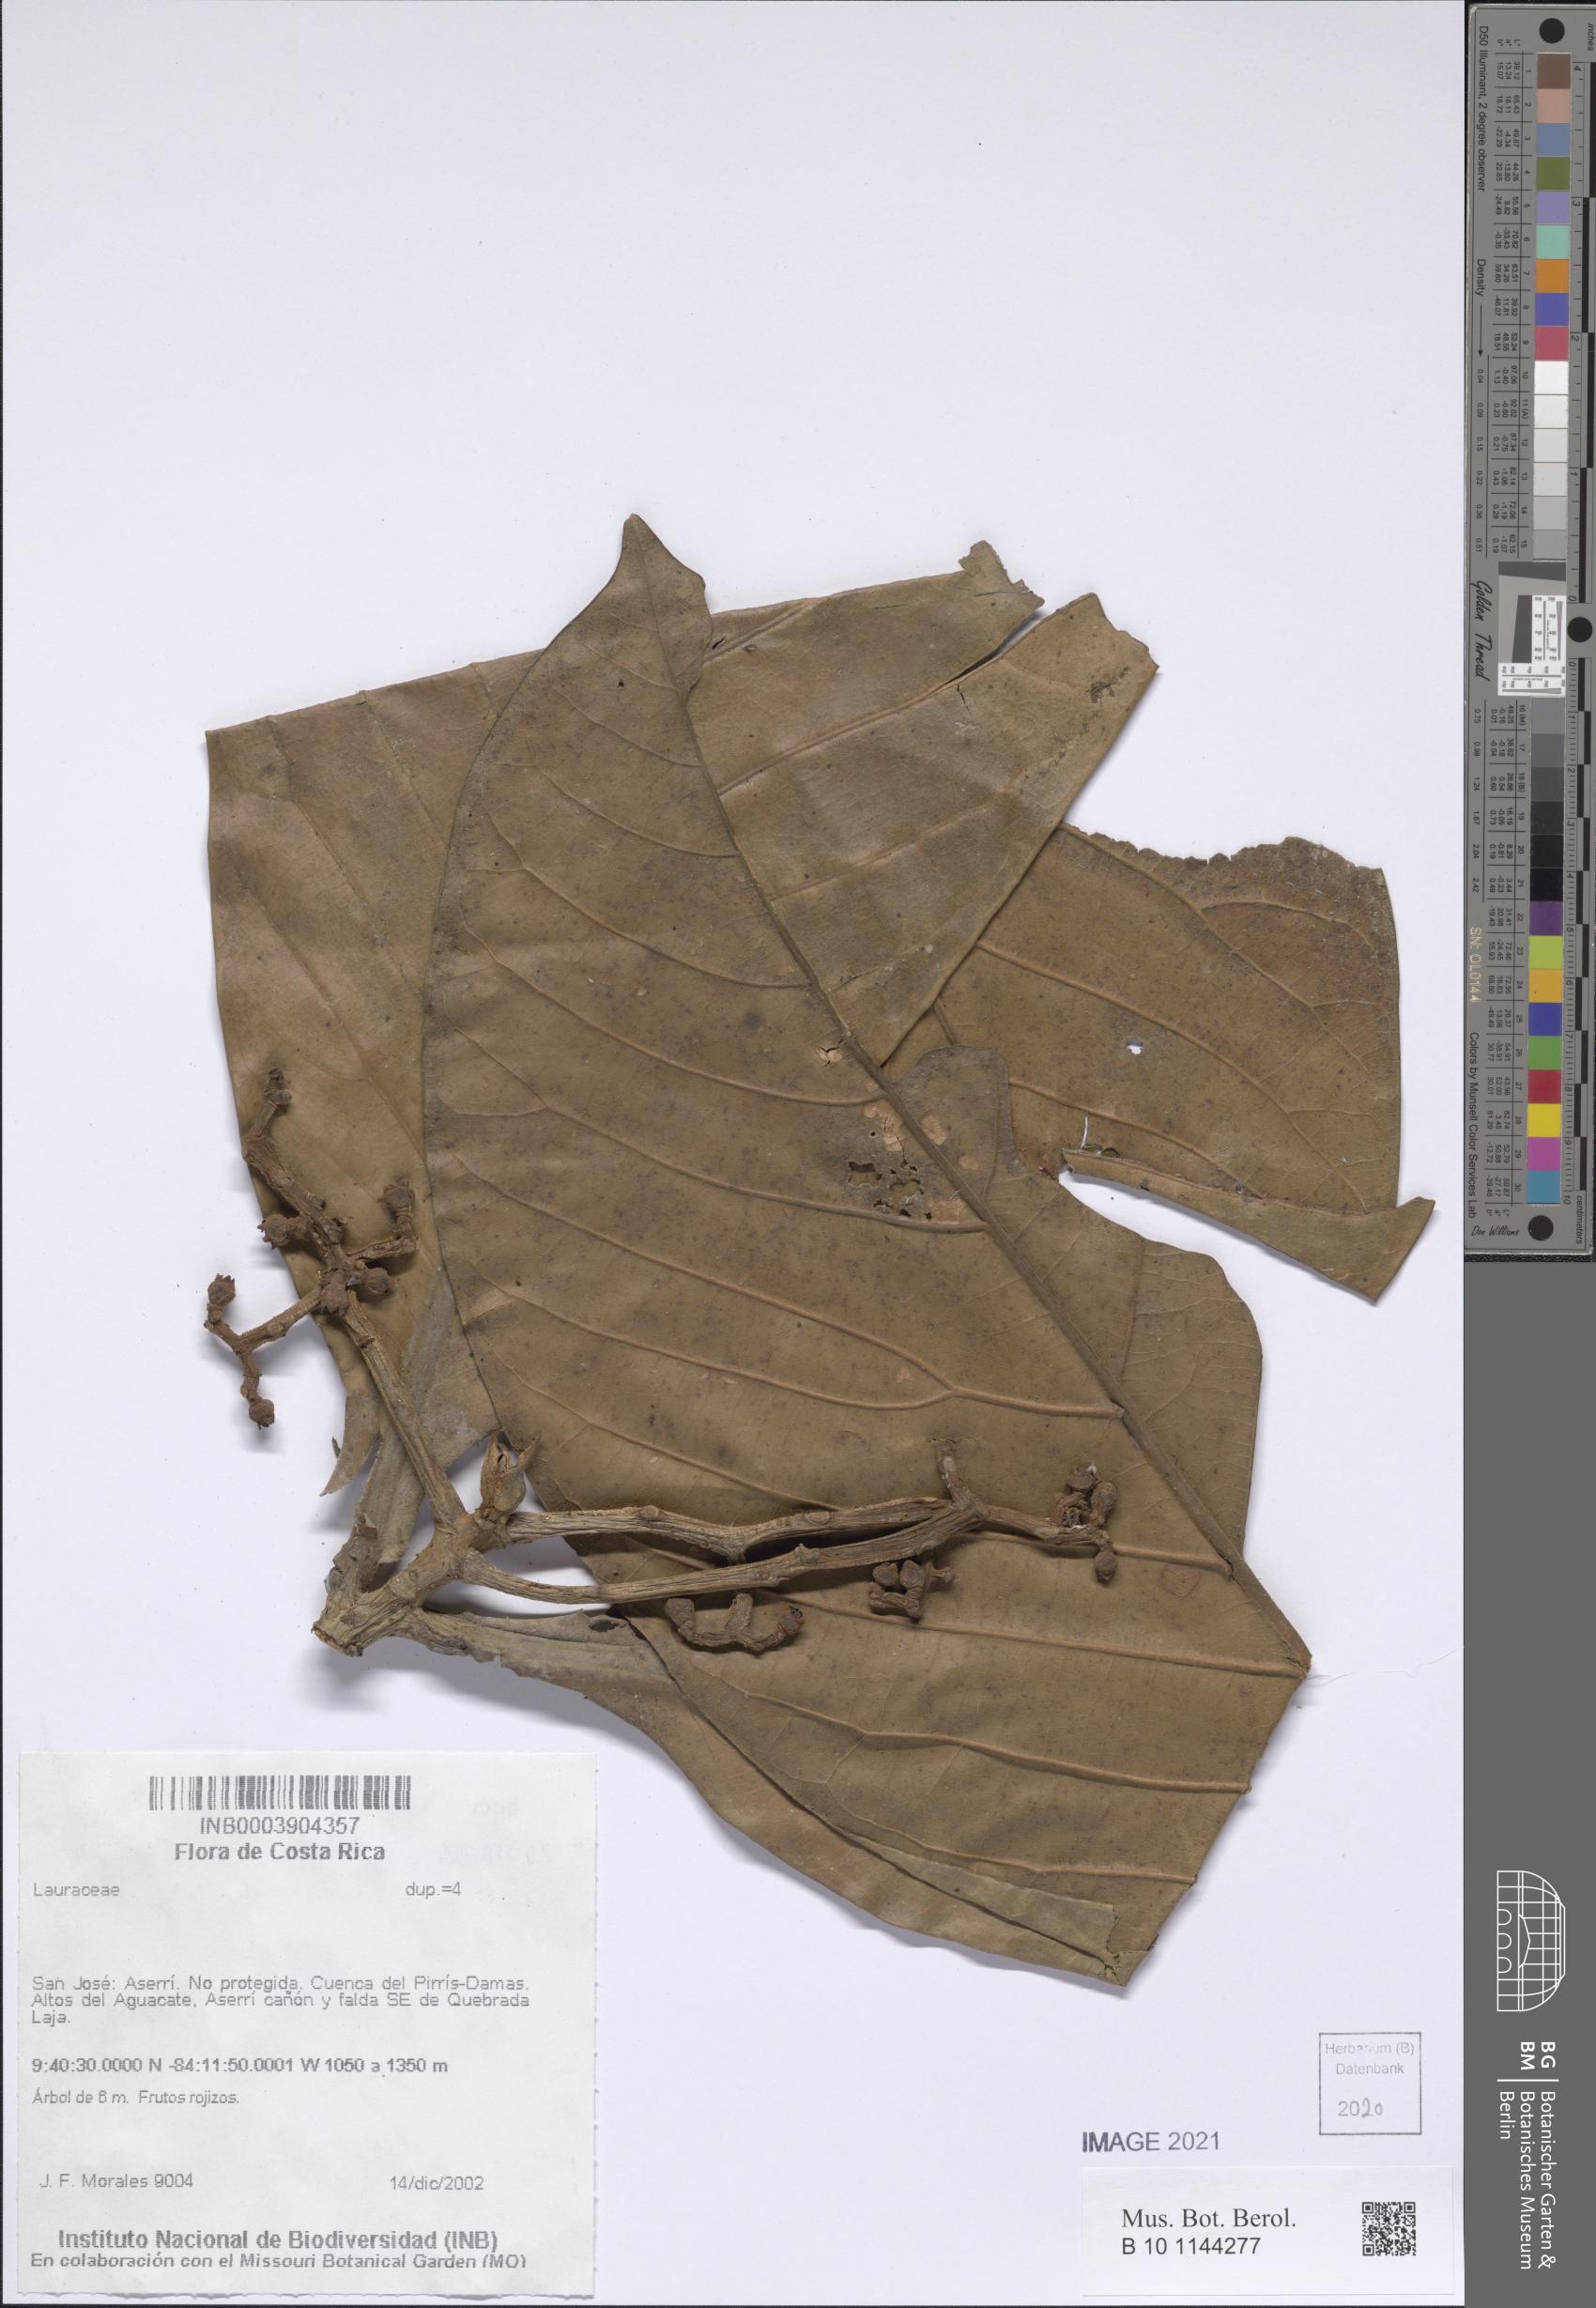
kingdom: Plantae
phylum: Tracheophyta
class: Magnoliopsida
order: Laurales
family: Lauraceae
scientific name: Lauraceae
